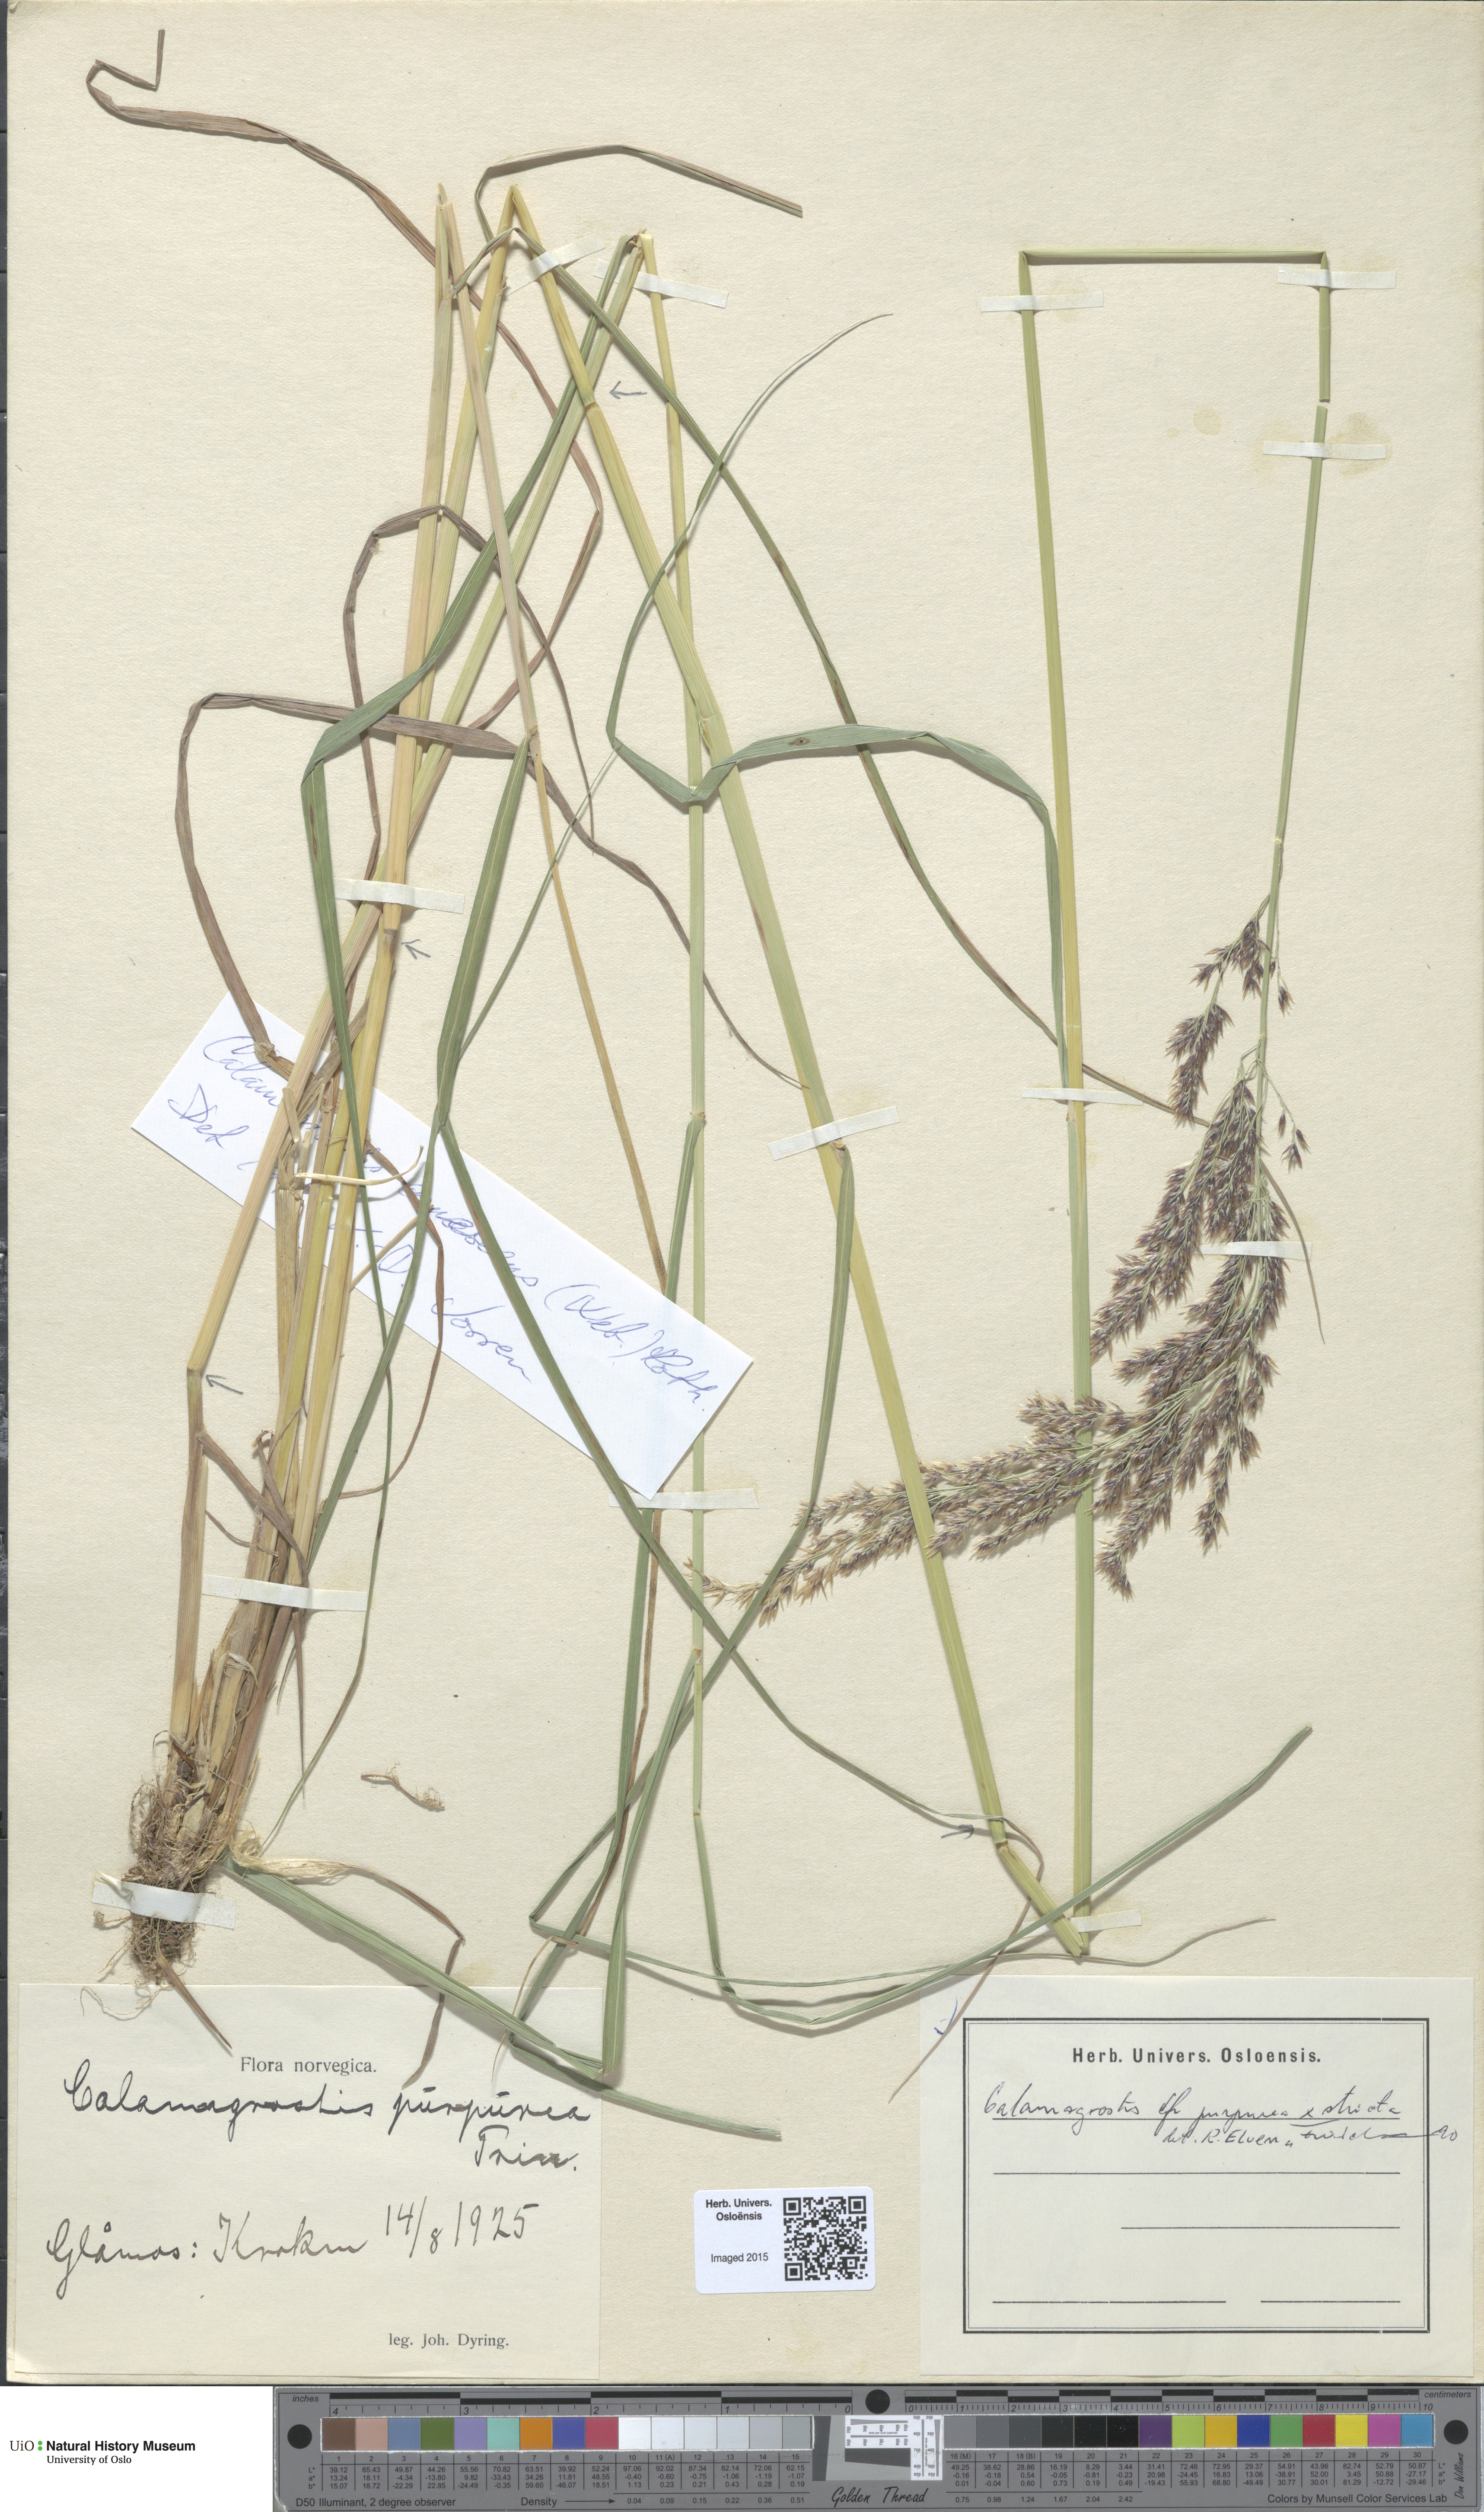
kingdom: Plantae
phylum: Tracheophyta
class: Liliopsida
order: Poales
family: Poaceae
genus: Calamagrostis
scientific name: Calamagrostis
